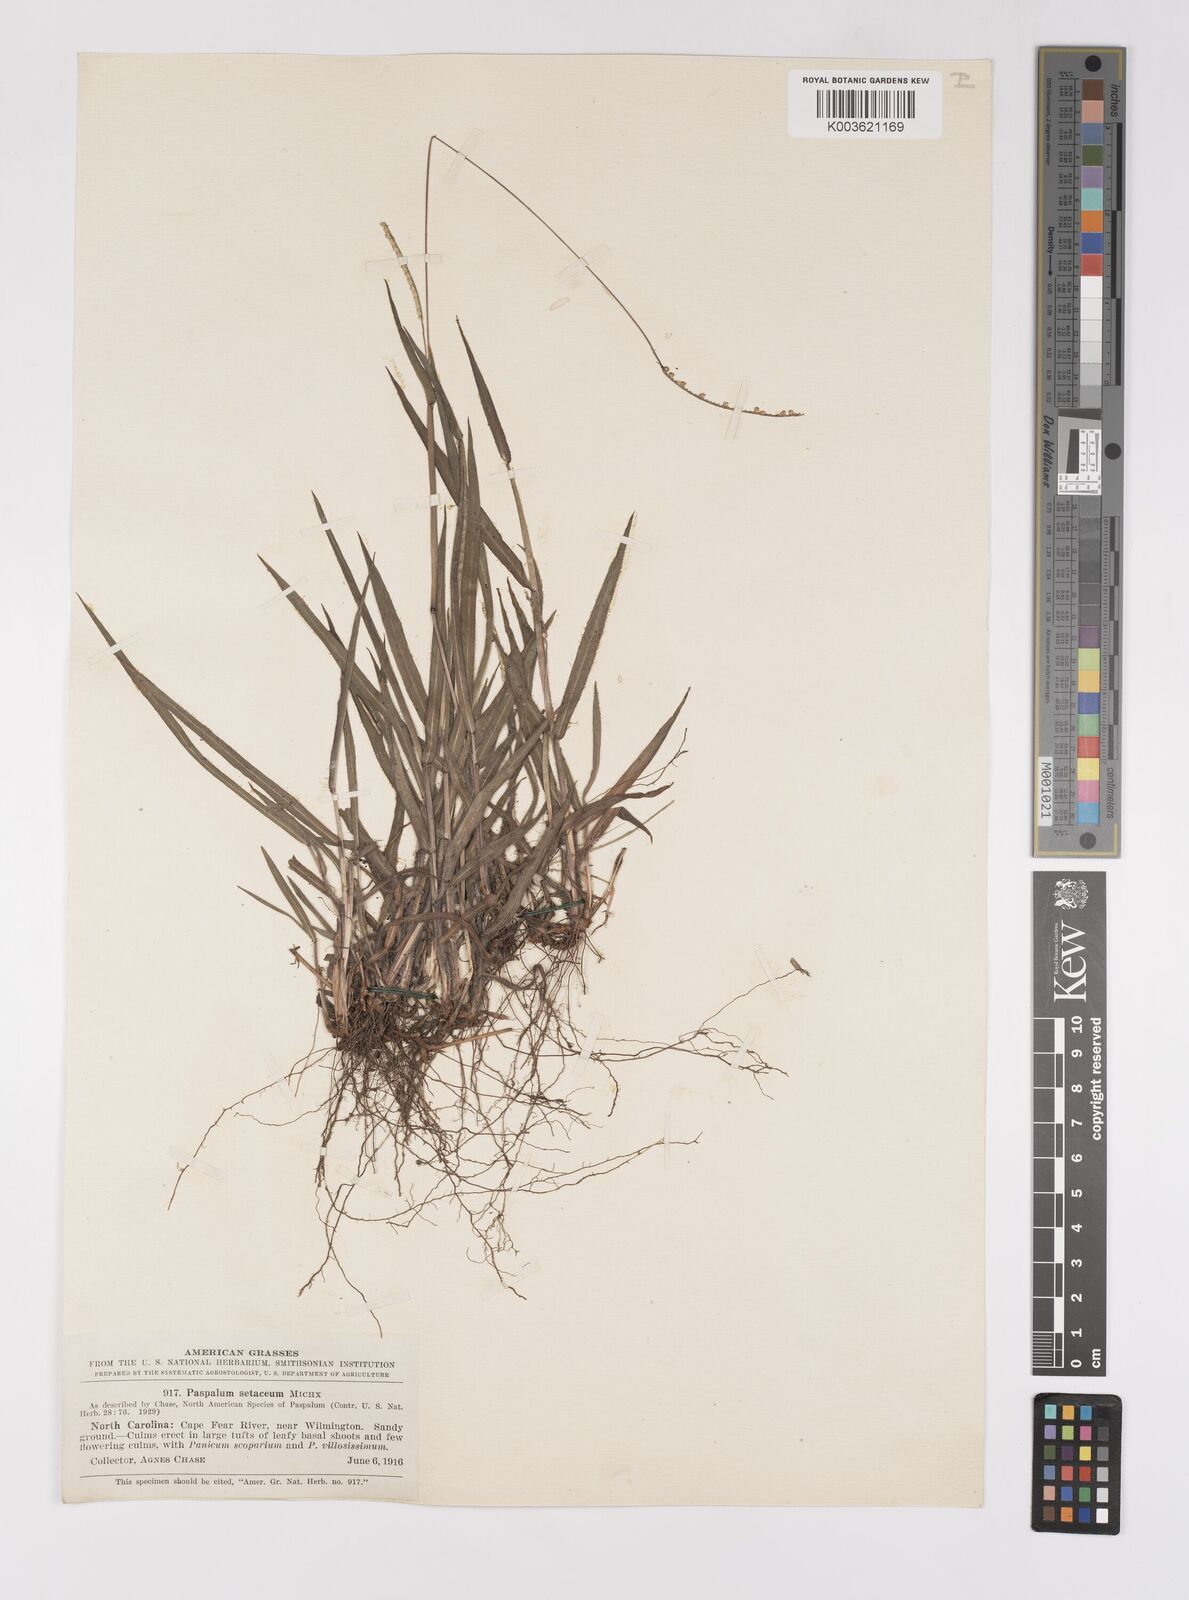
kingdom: Plantae
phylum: Tracheophyta
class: Liliopsida
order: Poales
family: Poaceae
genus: Paspalum
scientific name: Paspalum setaceum
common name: Slender paspalum
